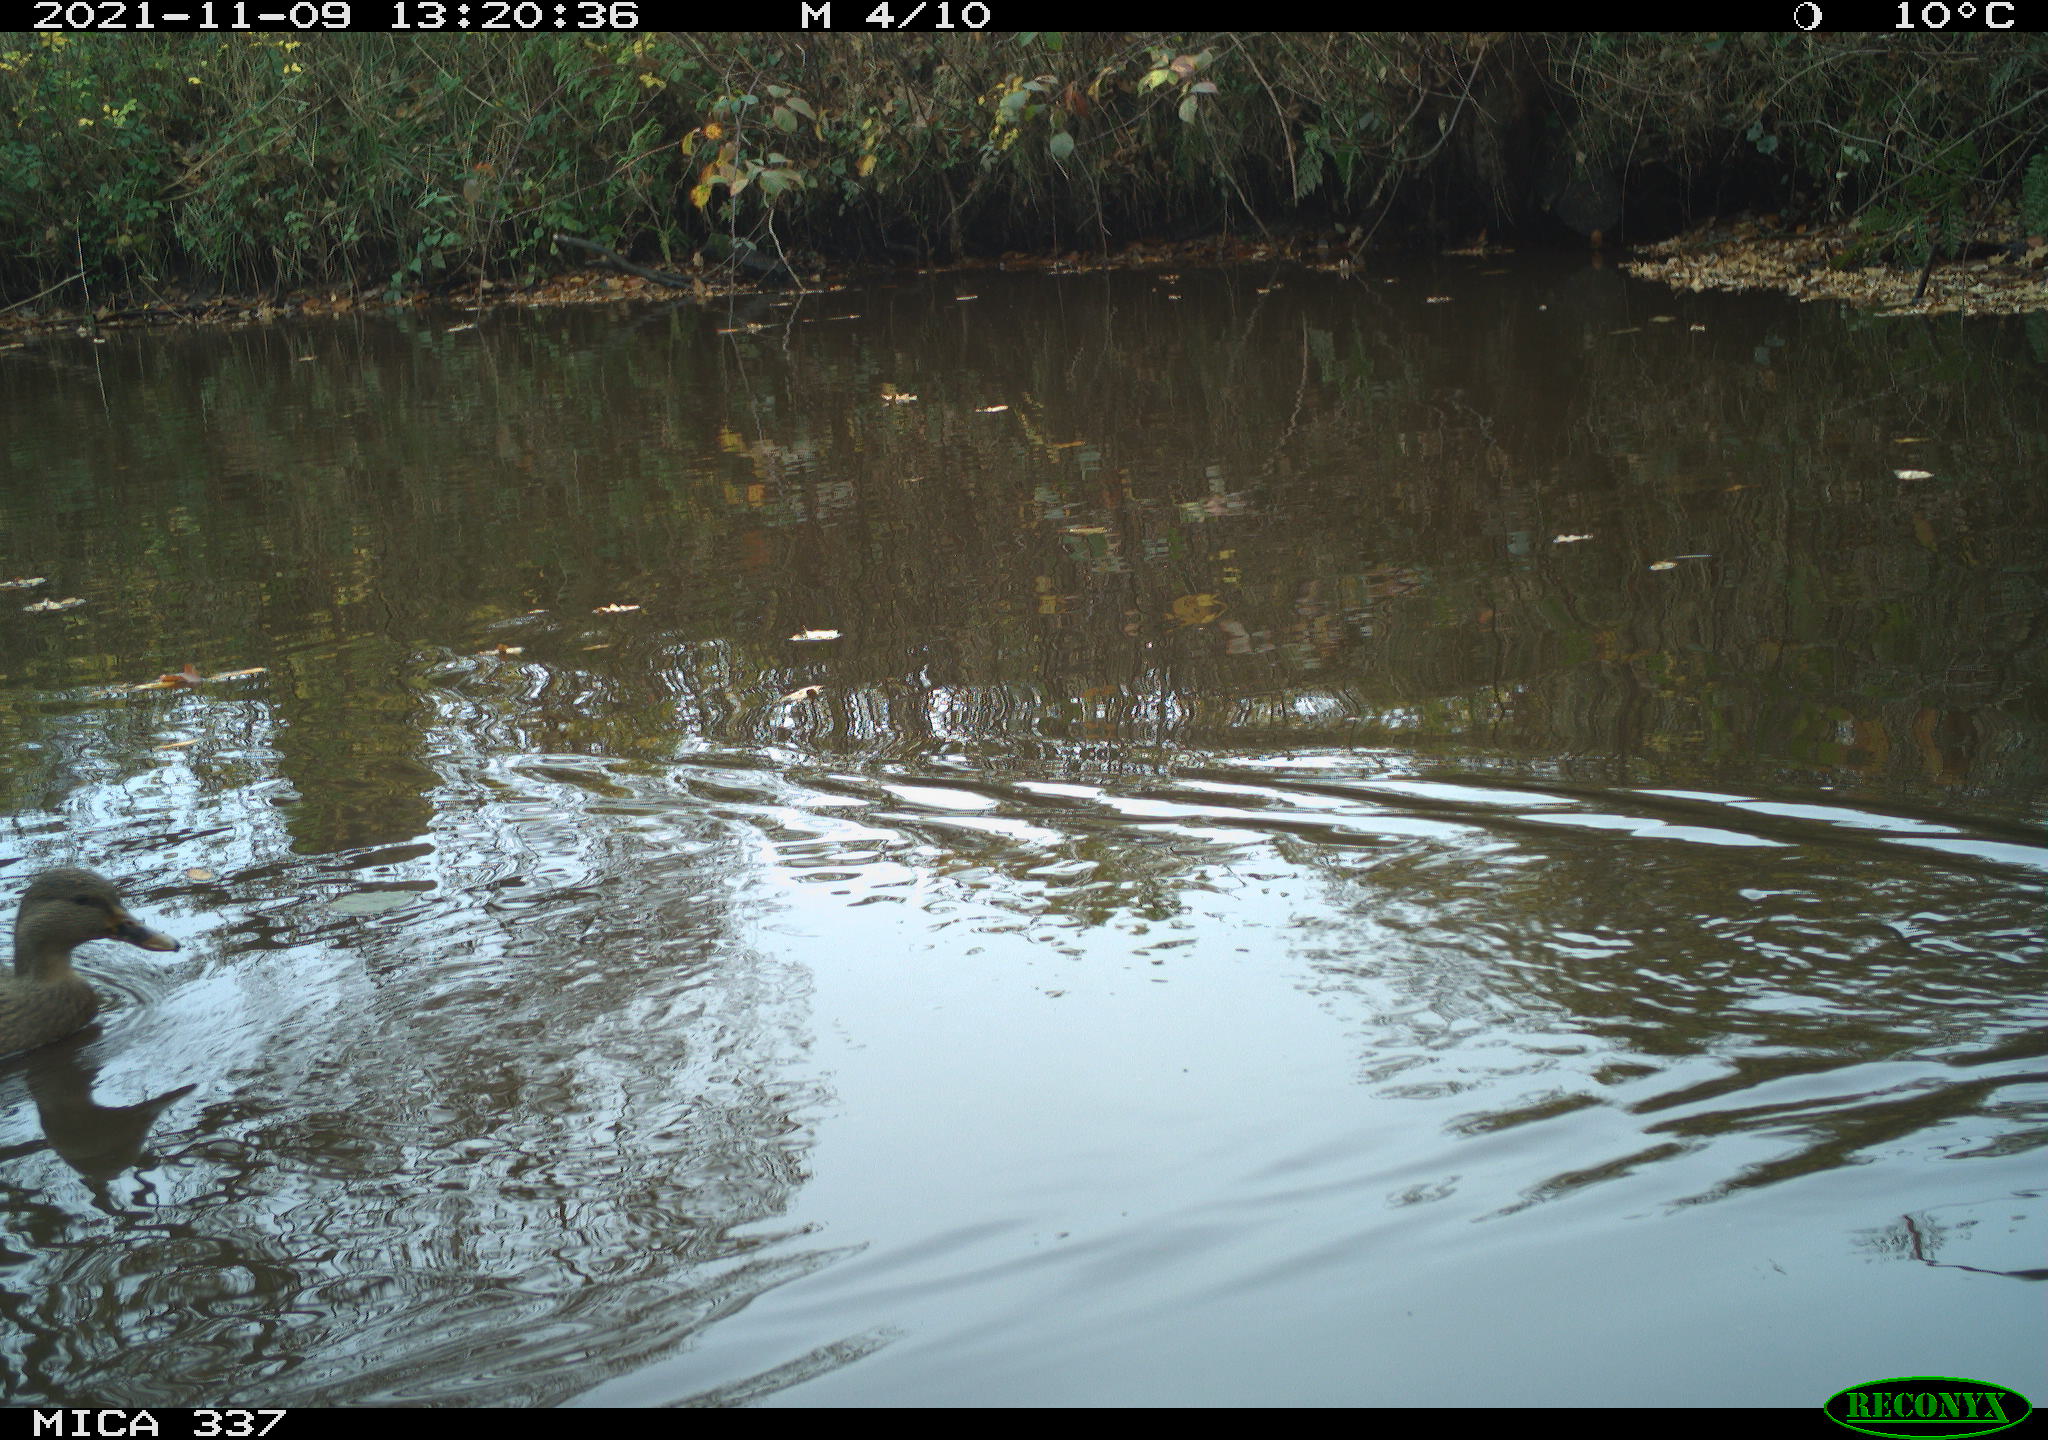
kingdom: Animalia
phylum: Chordata
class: Aves
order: Anseriformes
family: Anatidae
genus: Anas
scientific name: Anas platyrhynchos
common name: Mallard
